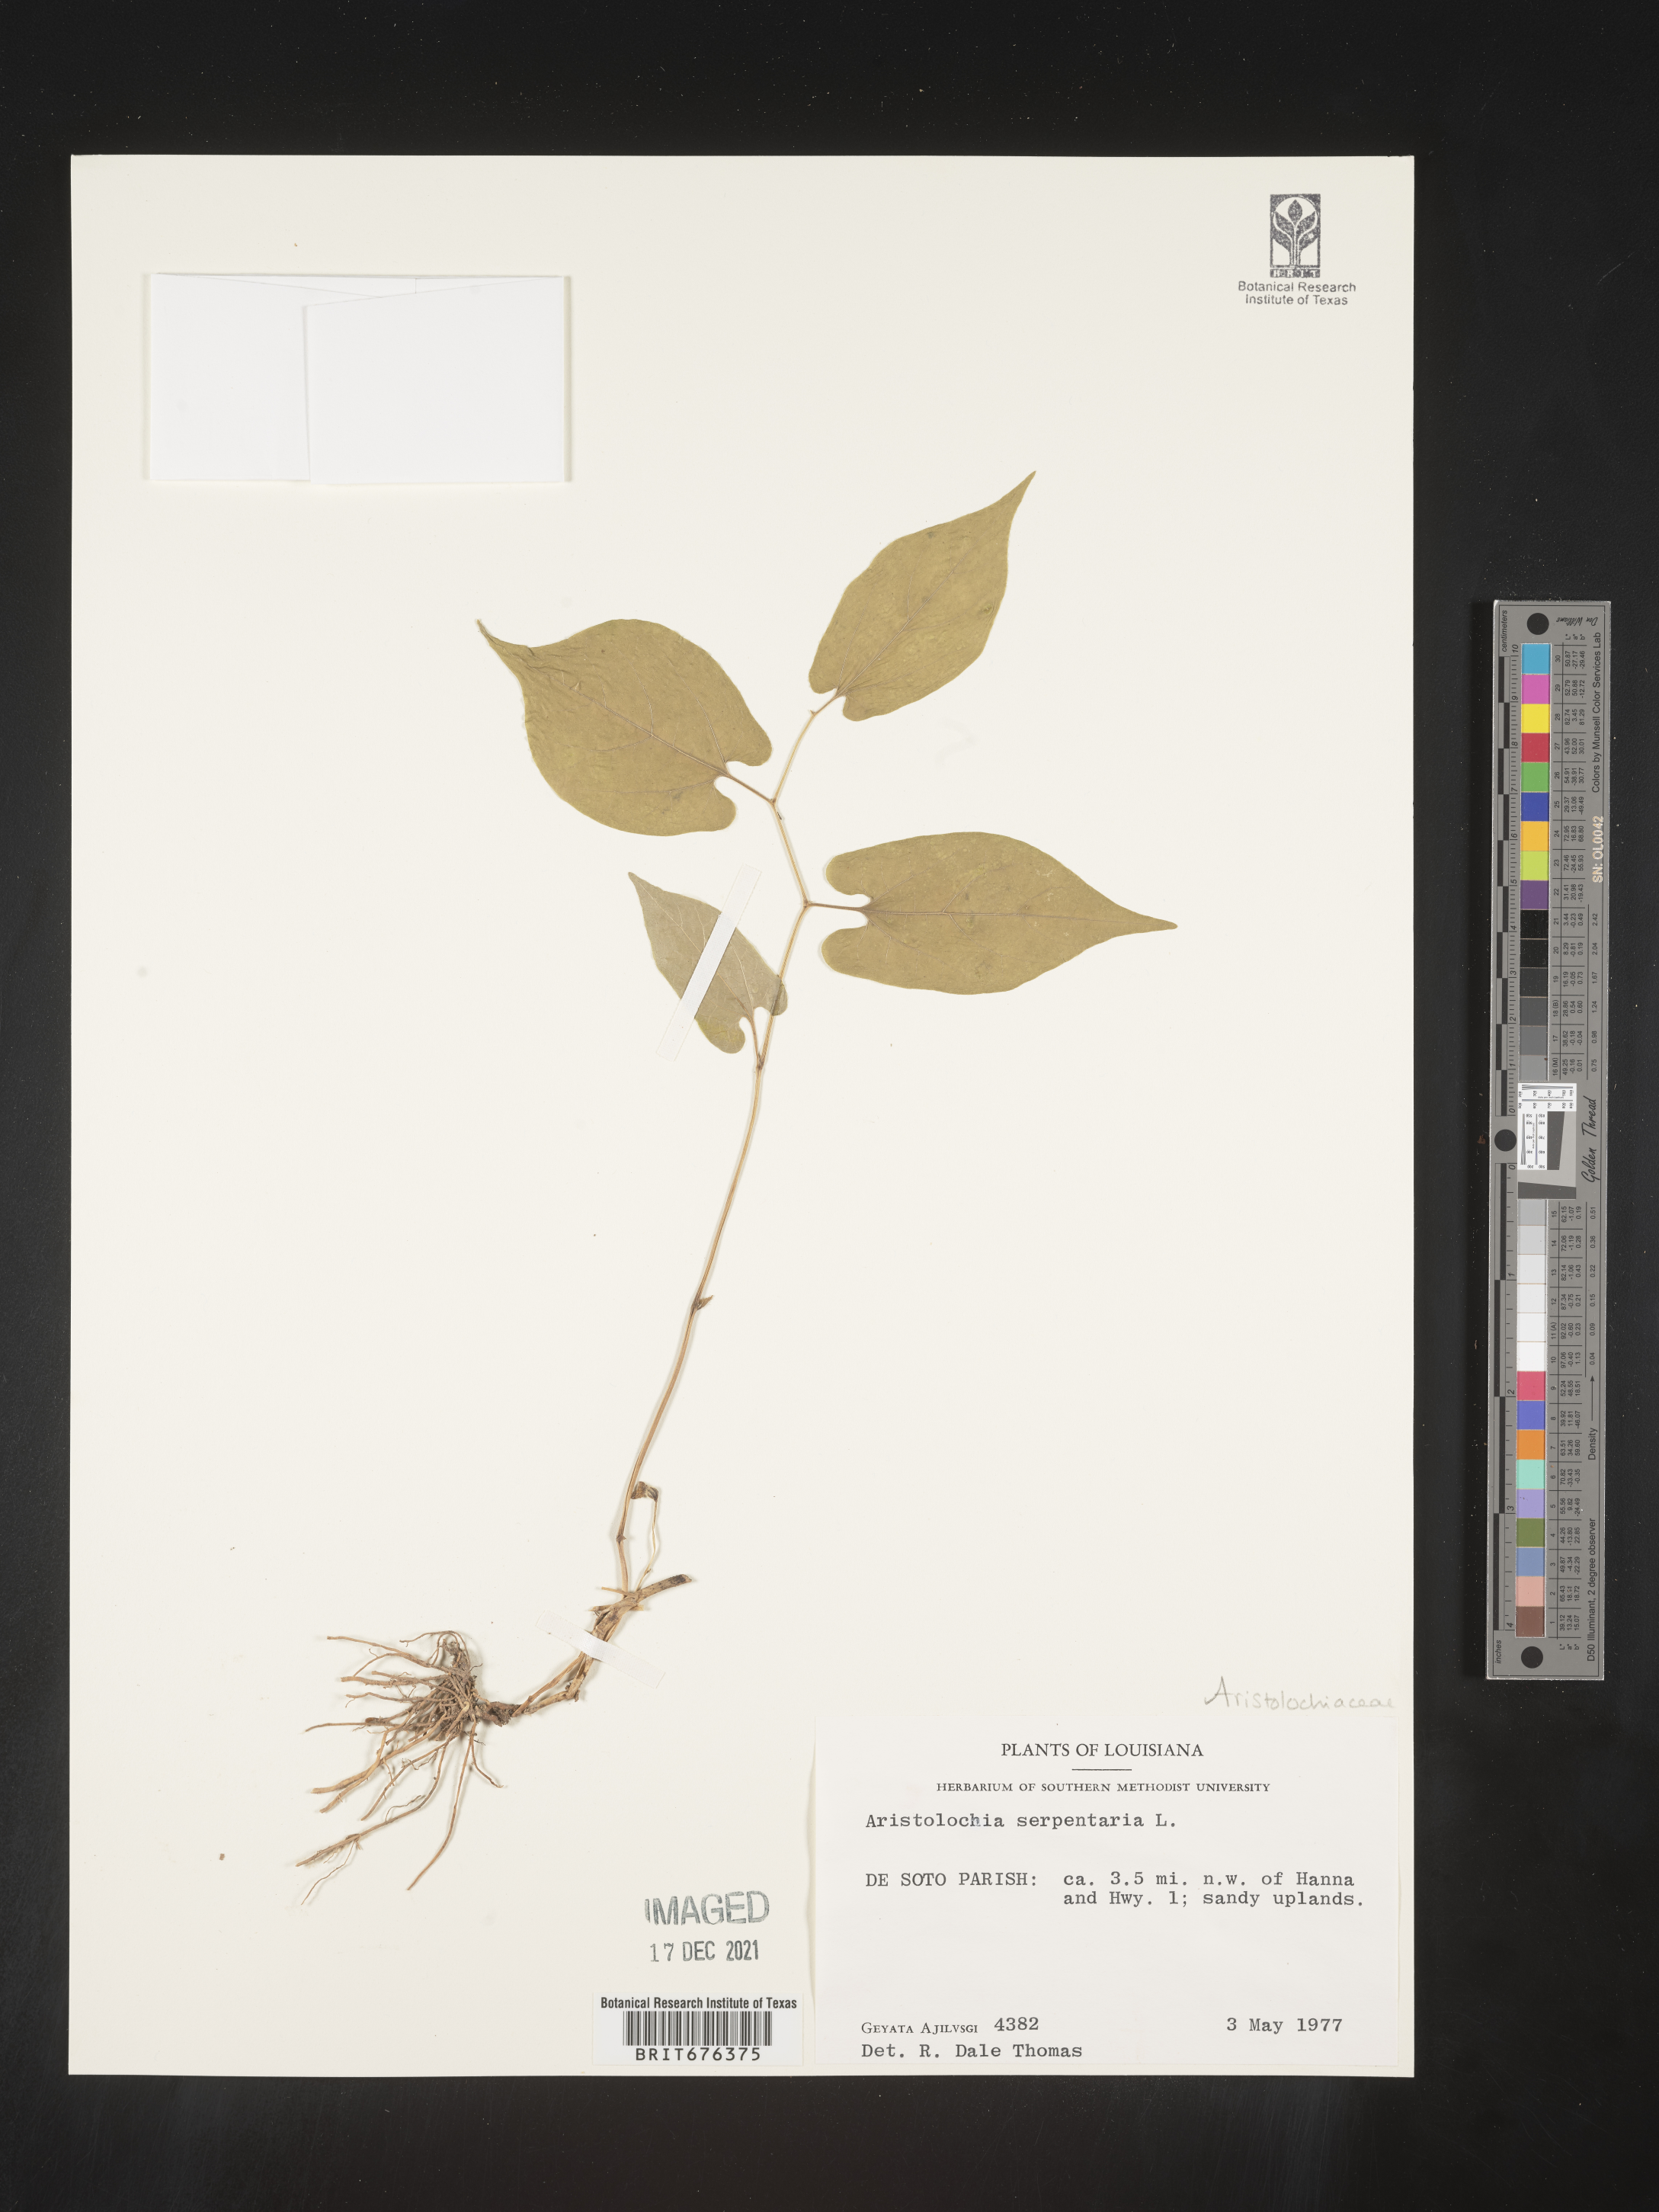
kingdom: Plantae
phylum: Tracheophyta
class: Magnoliopsida
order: Piperales
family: Aristolochiaceae
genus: Aristolochia
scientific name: Aristolochia
